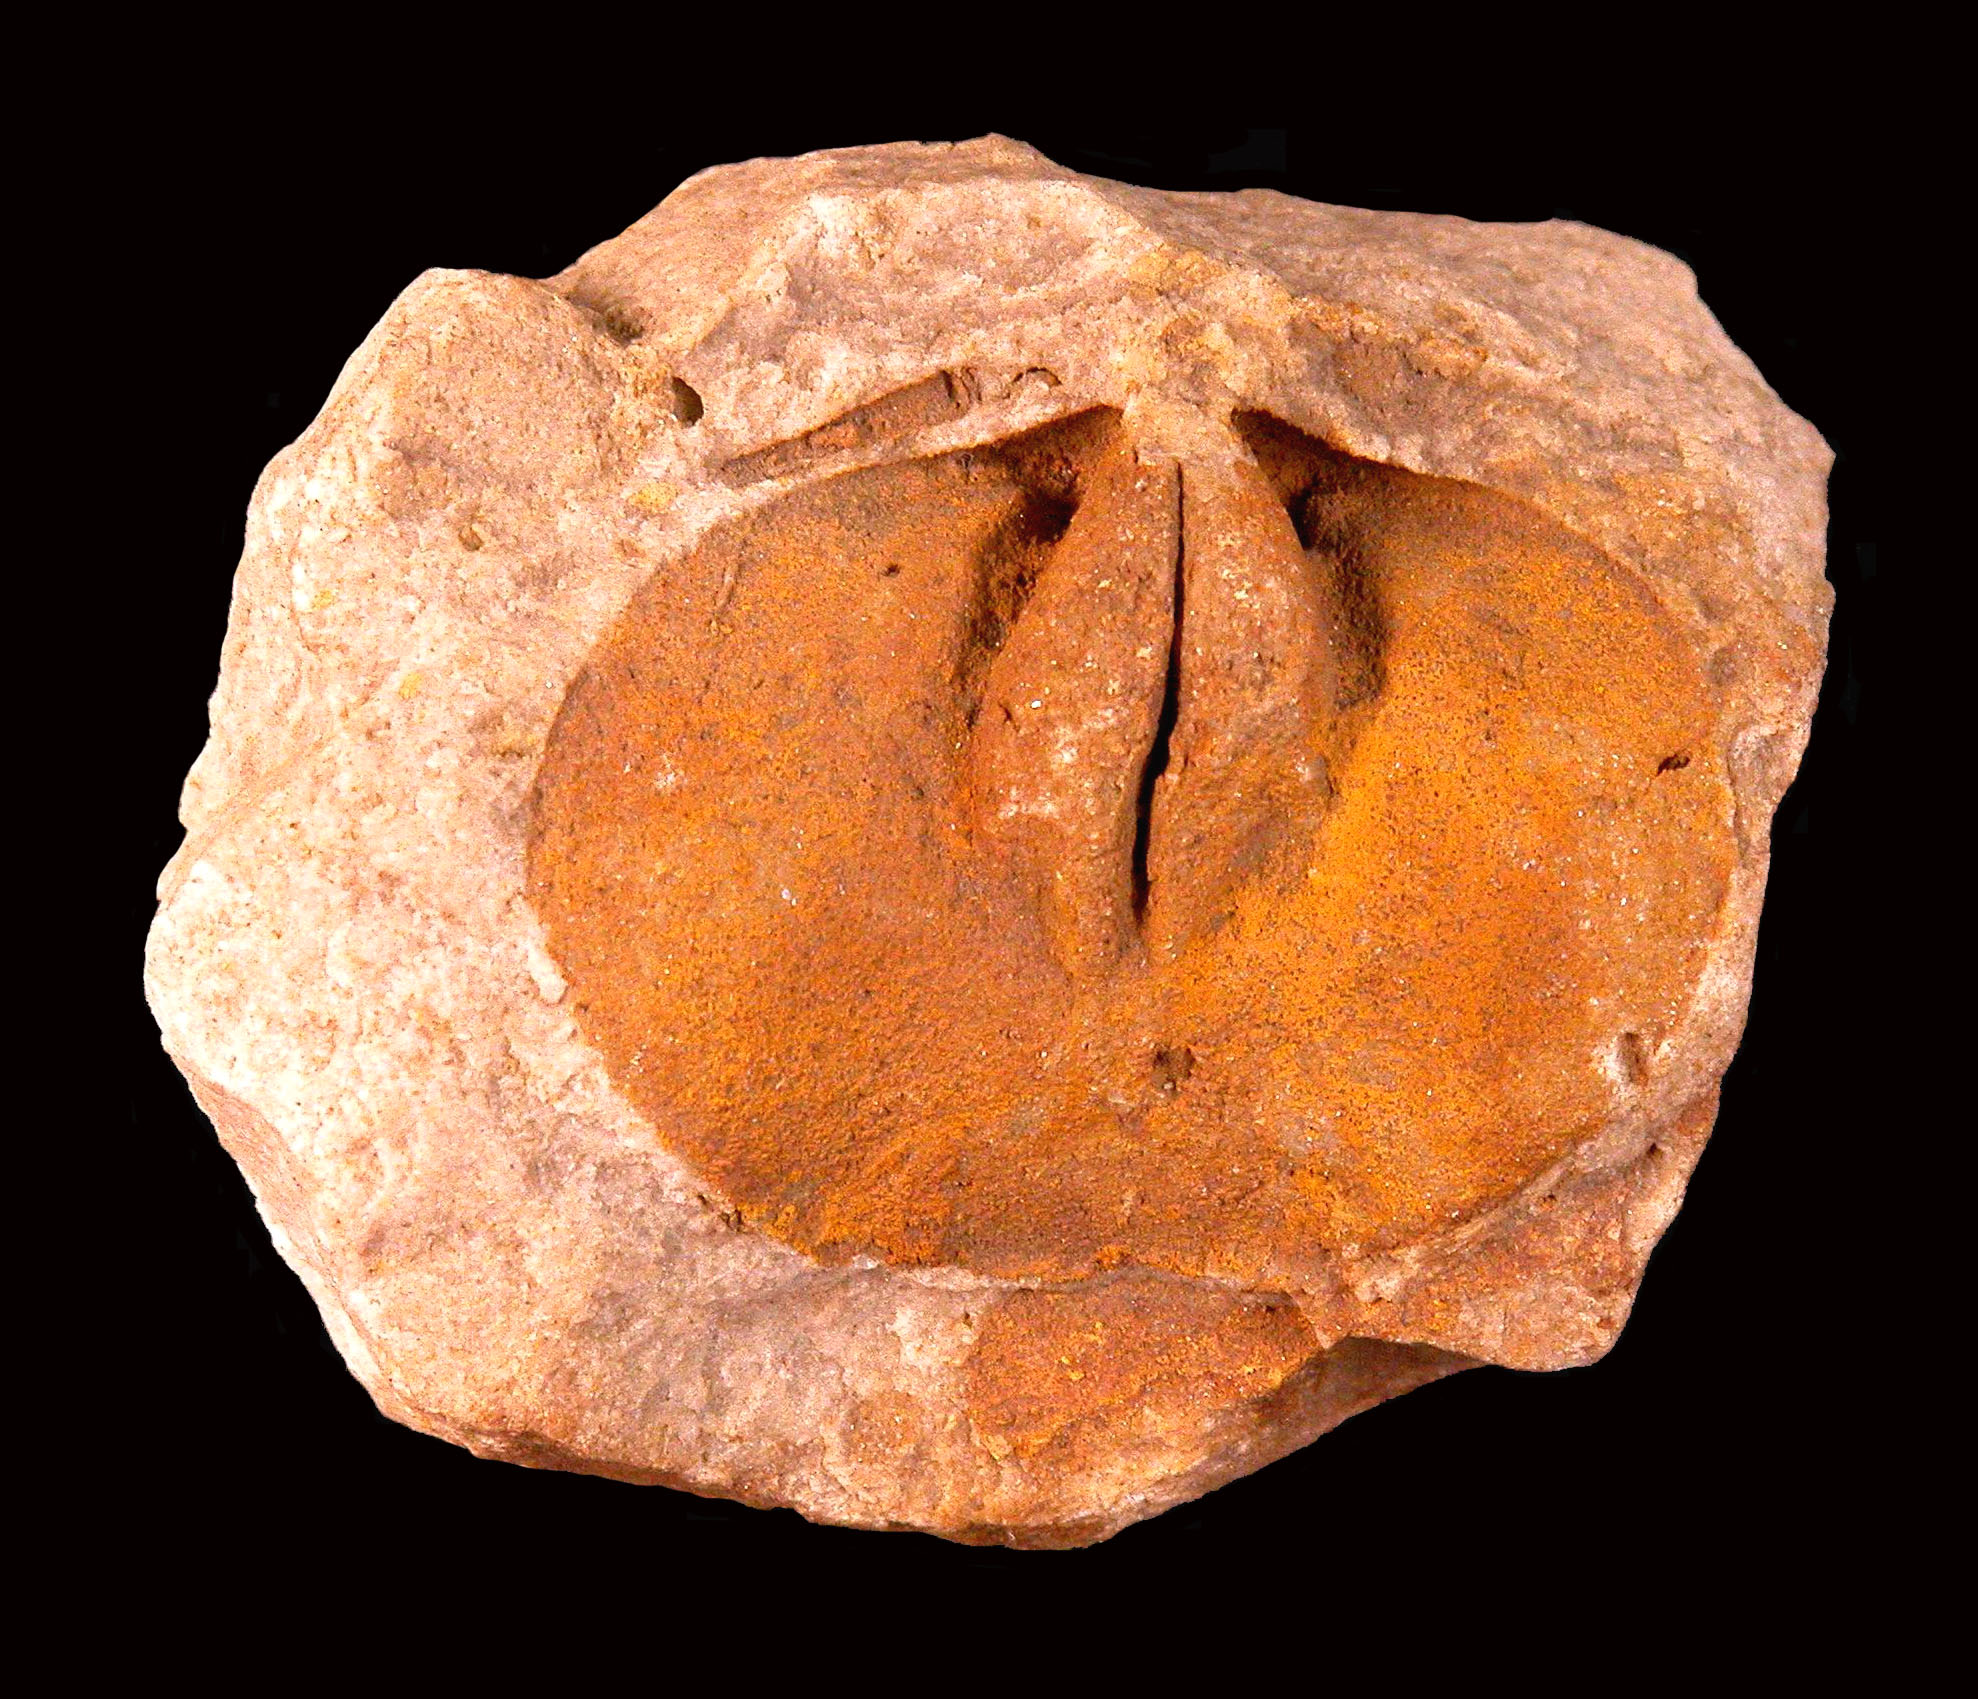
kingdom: Animalia
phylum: Brachiopoda
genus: Pachyschizophoria
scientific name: Pachyschizophoria
